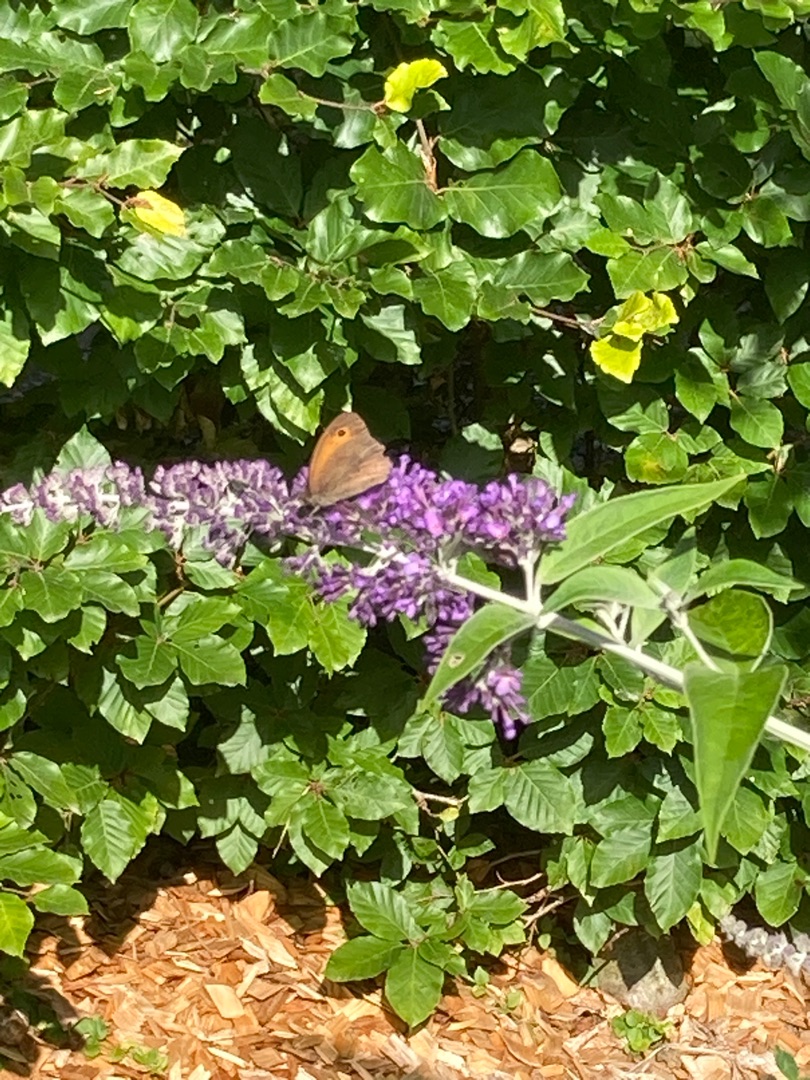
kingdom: Animalia
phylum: Arthropoda
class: Insecta
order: Lepidoptera
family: Nymphalidae
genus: Maniola
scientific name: Maniola jurtina
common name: Græsrandøje
